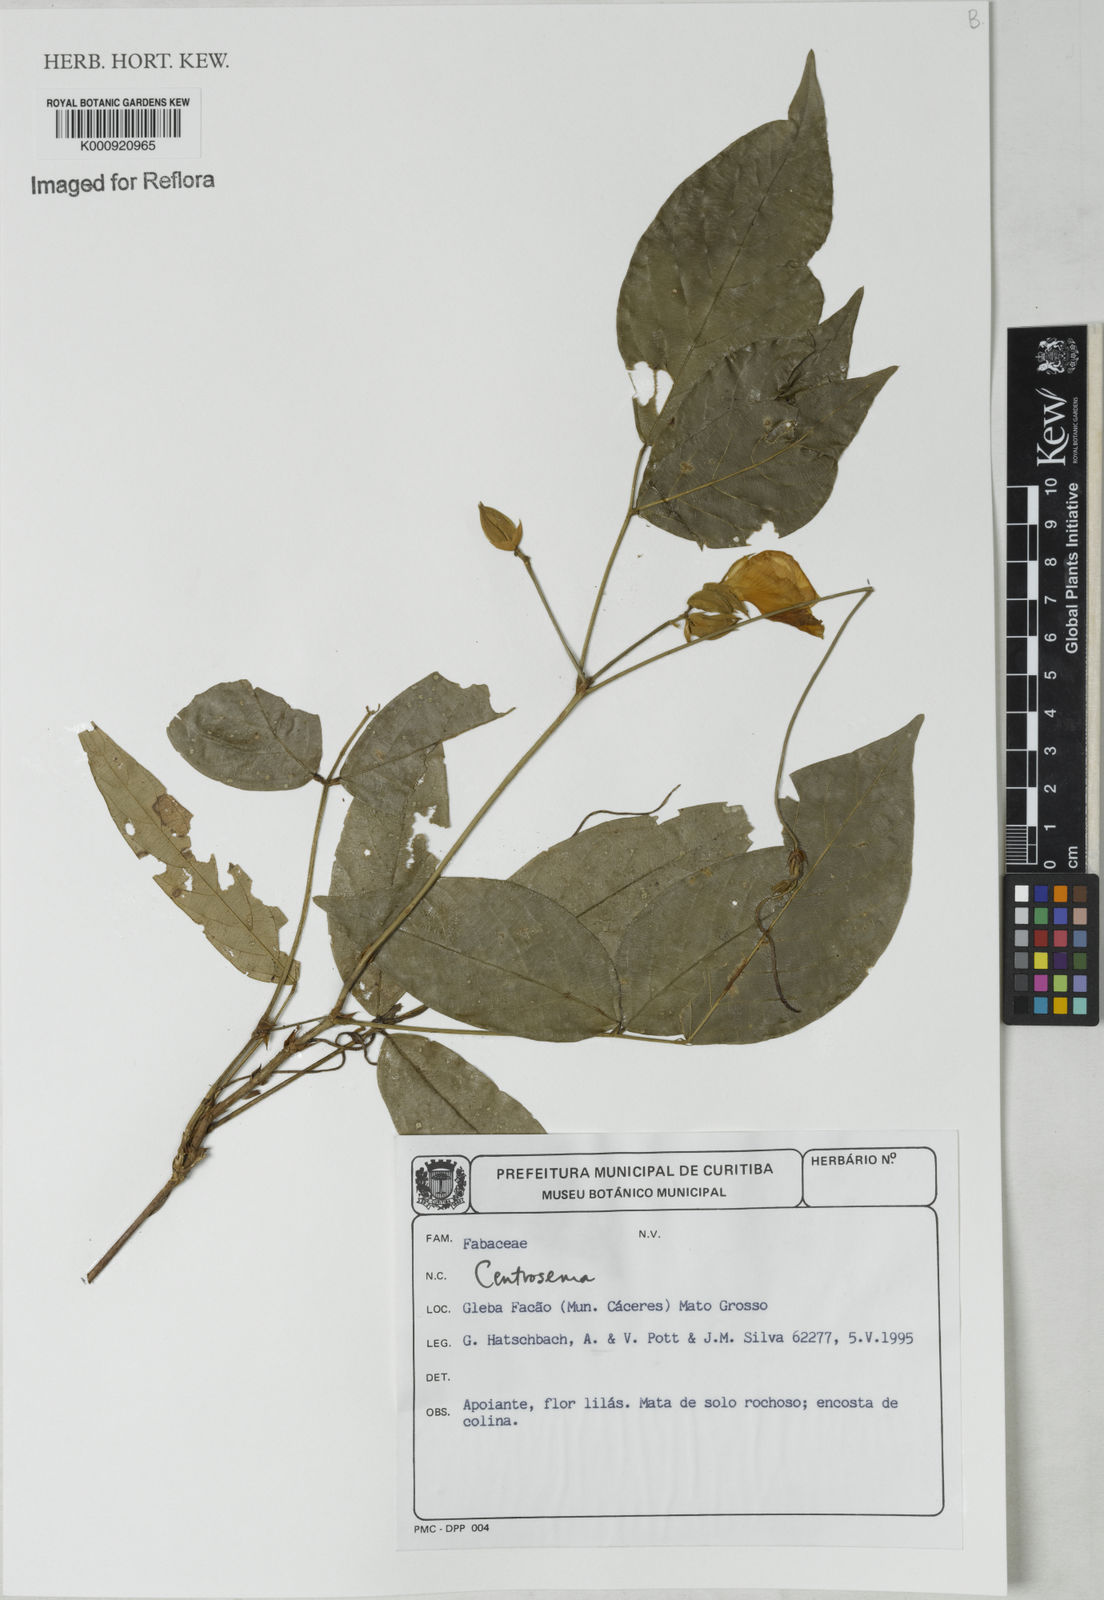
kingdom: Plantae
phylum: Tracheophyta
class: Magnoliopsida
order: Fabales
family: Fabaceae
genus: Centrosema
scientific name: Centrosema
